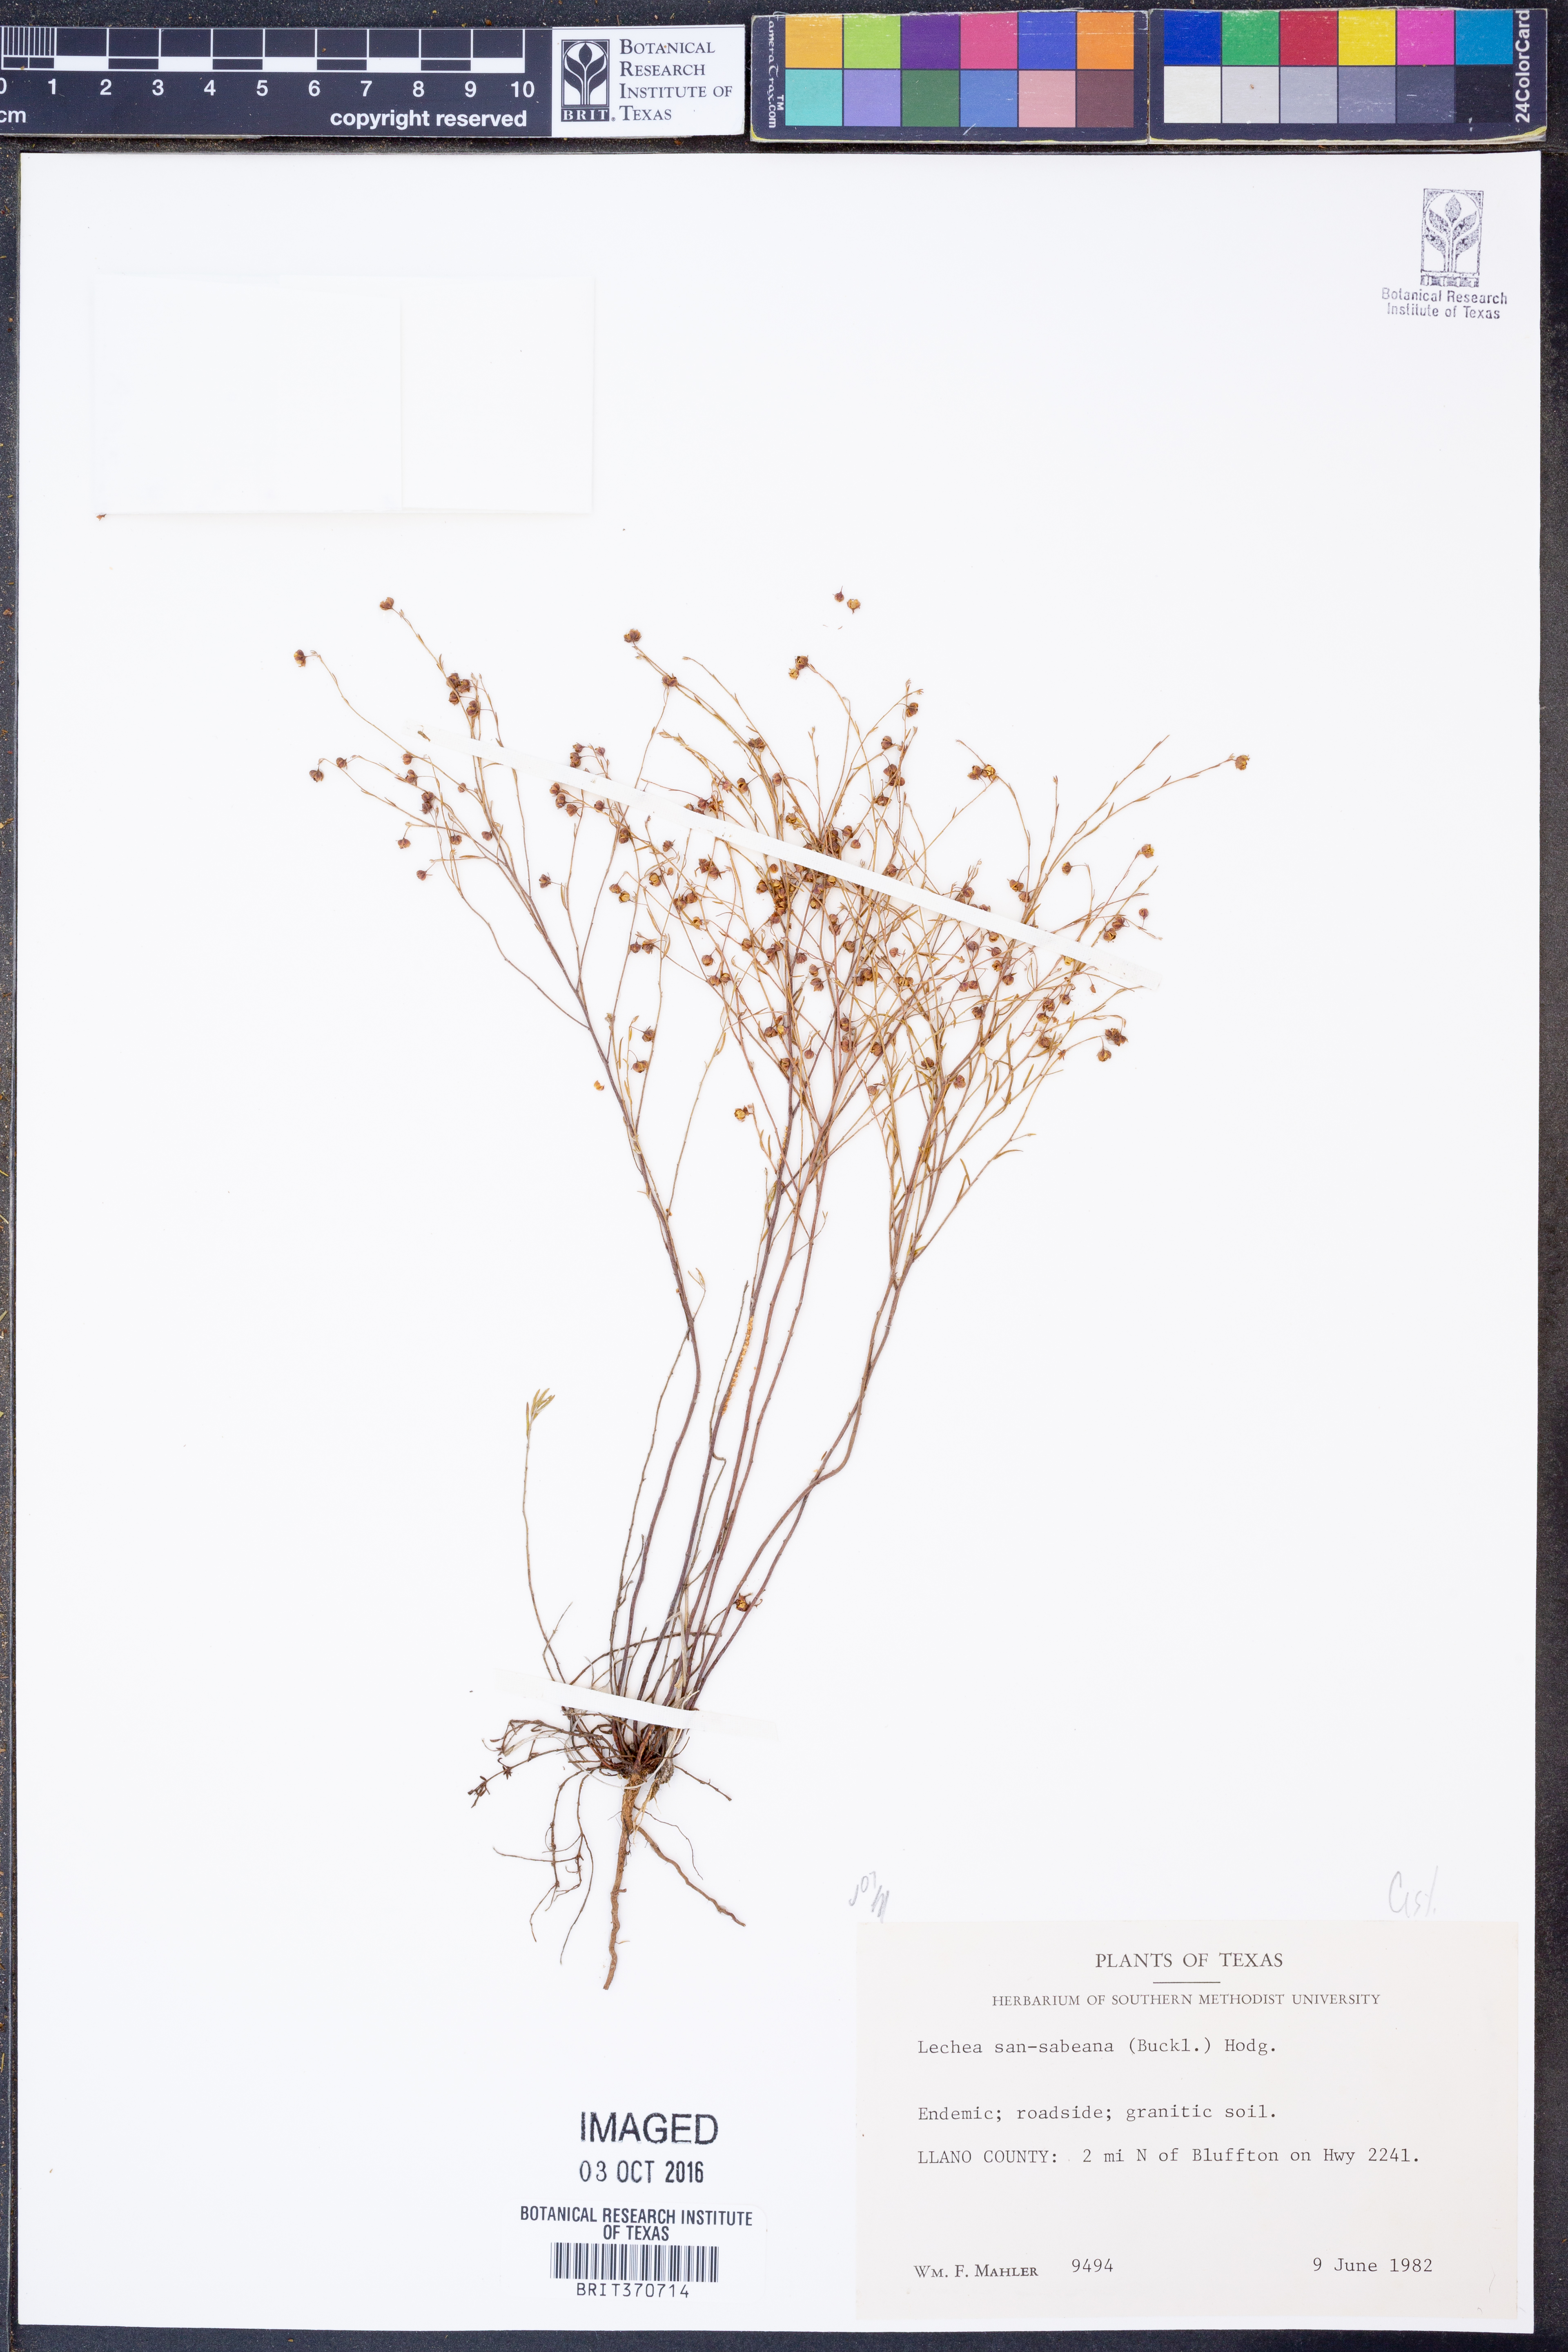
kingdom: Plantae
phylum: Tracheophyta
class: Magnoliopsida
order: Malvales
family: Cistaceae
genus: Lechea
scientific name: Lechea san-sabeana
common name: San saba pinweed
